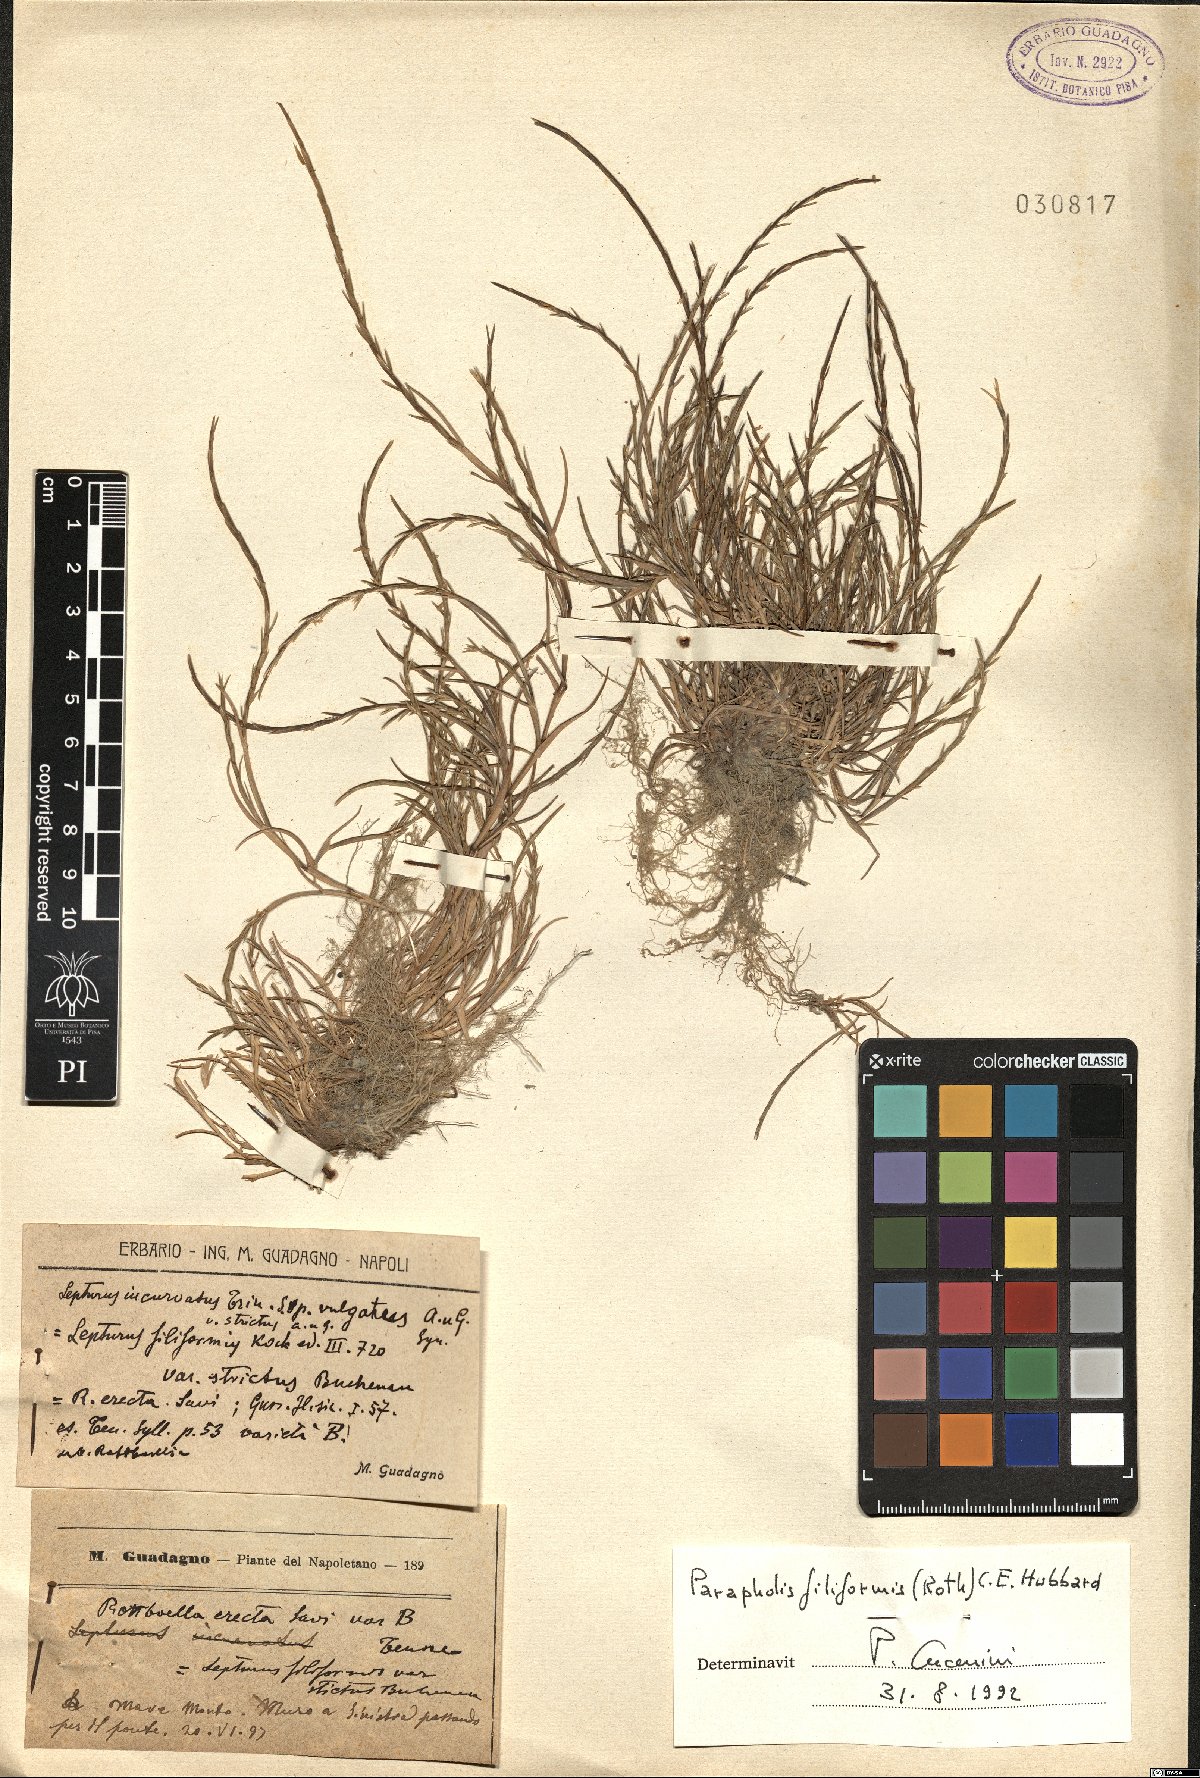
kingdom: Plantae
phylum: Tracheophyta
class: Liliopsida
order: Poales
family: Poaceae
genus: Parapholis
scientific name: Parapholis filiformis
